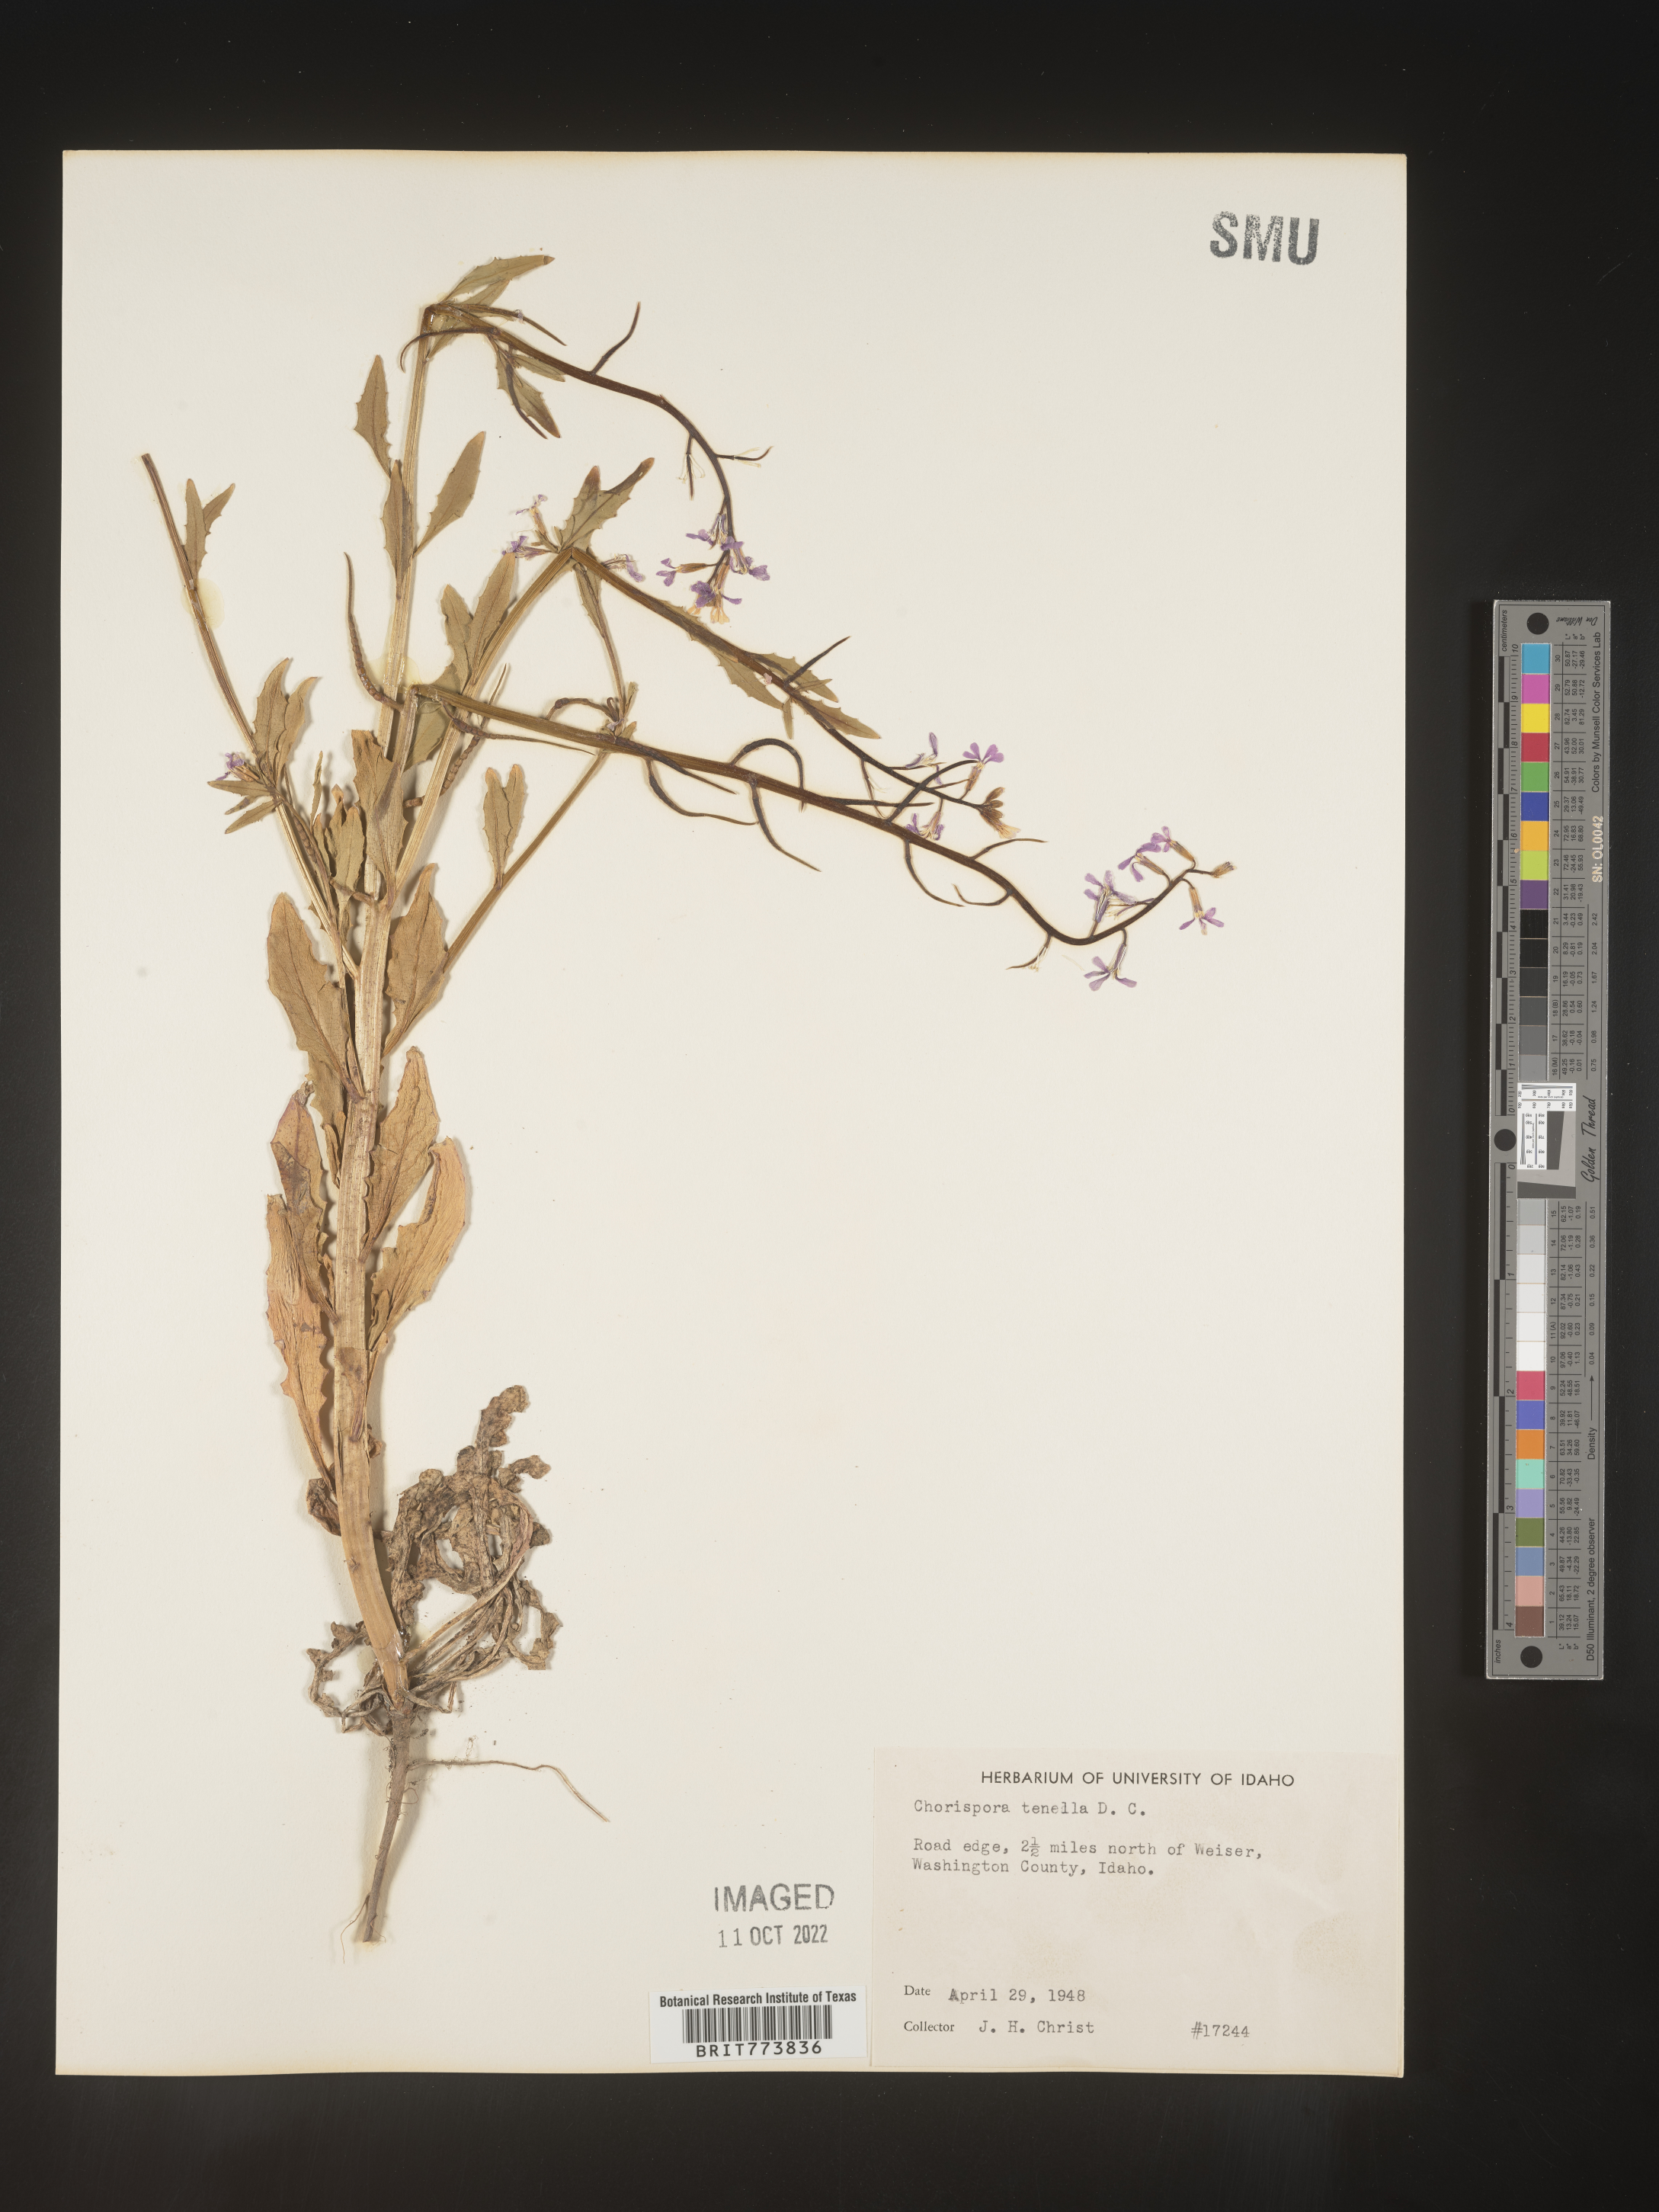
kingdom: Plantae
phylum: Tracheophyta
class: Magnoliopsida
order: Brassicales
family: Brassicaceae
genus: Chorispora
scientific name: Chorispora tenella
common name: Crossflower
